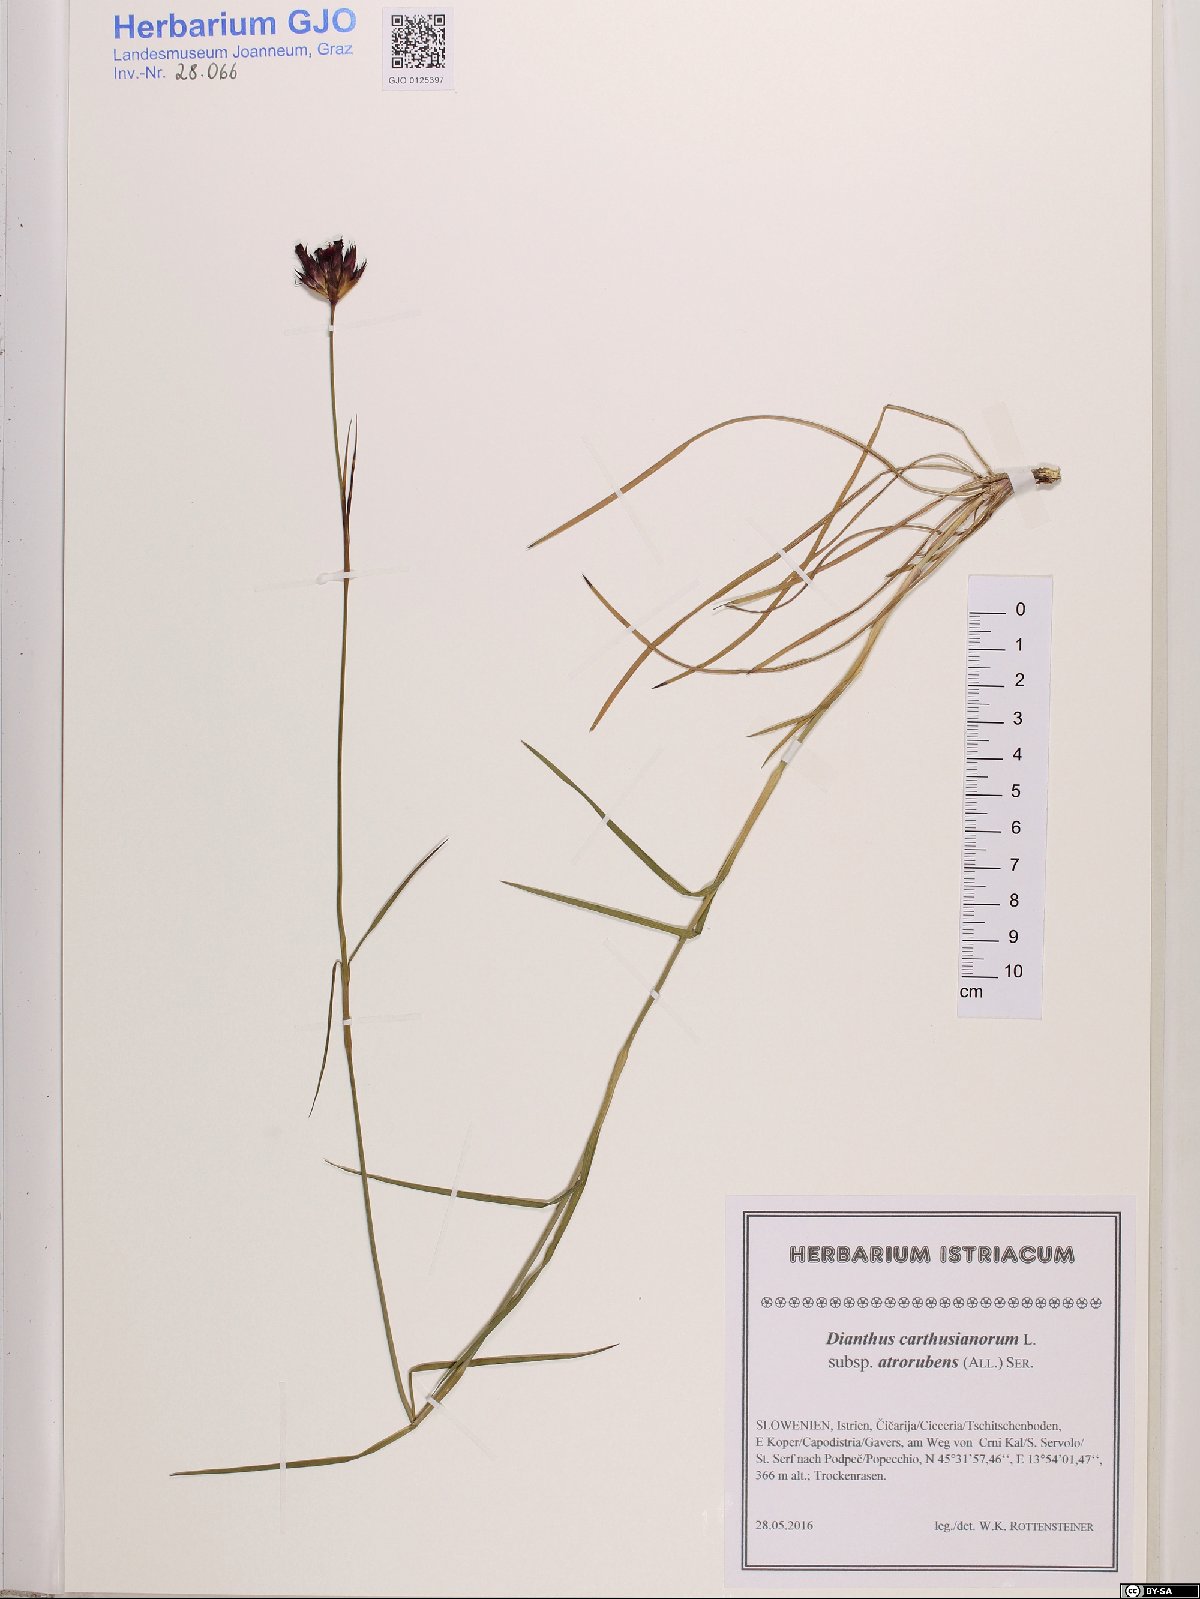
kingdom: Plantae
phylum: Tracheophyta
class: Magnoliopsida
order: Caryophyllales
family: Caryophyllaceae
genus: Dianthus
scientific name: Dianthus carthusianorum
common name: Carthusian pink
